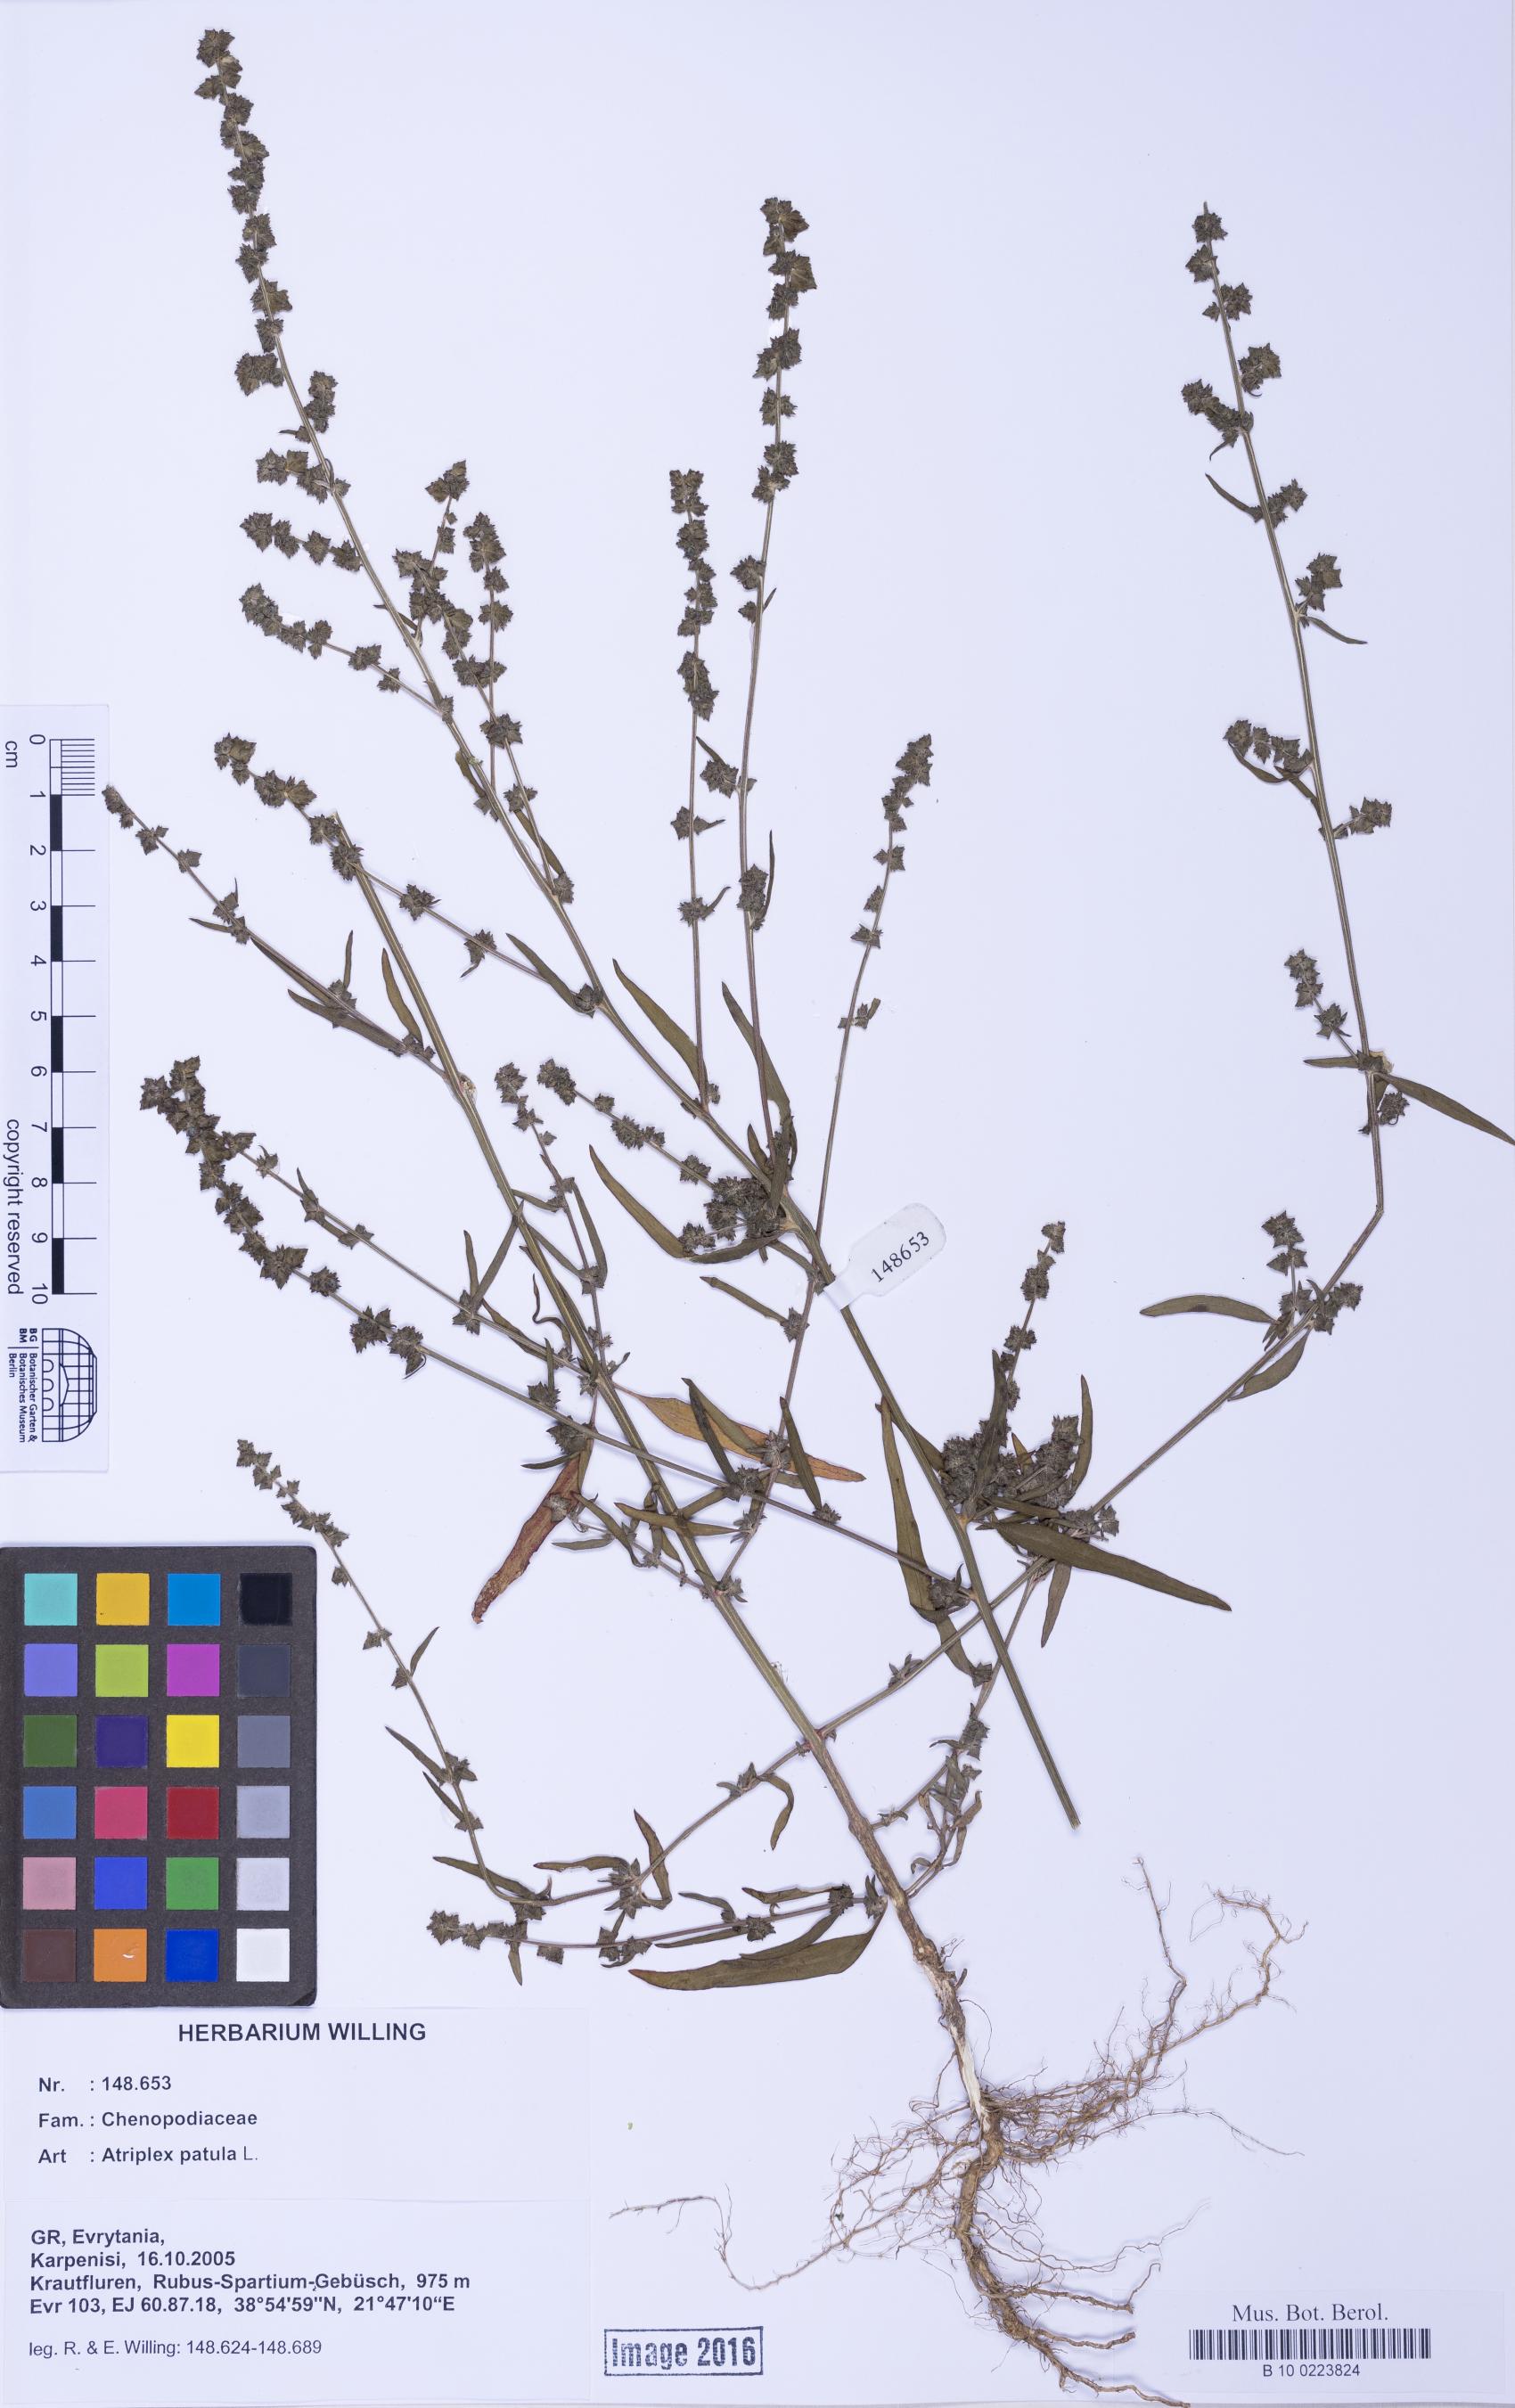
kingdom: Plantae
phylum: Tracheophyta
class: Magnoliopsida
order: Caryophyllales
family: Amaranthaceae
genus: Atriplex
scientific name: Atriplex patula
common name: Common orache
